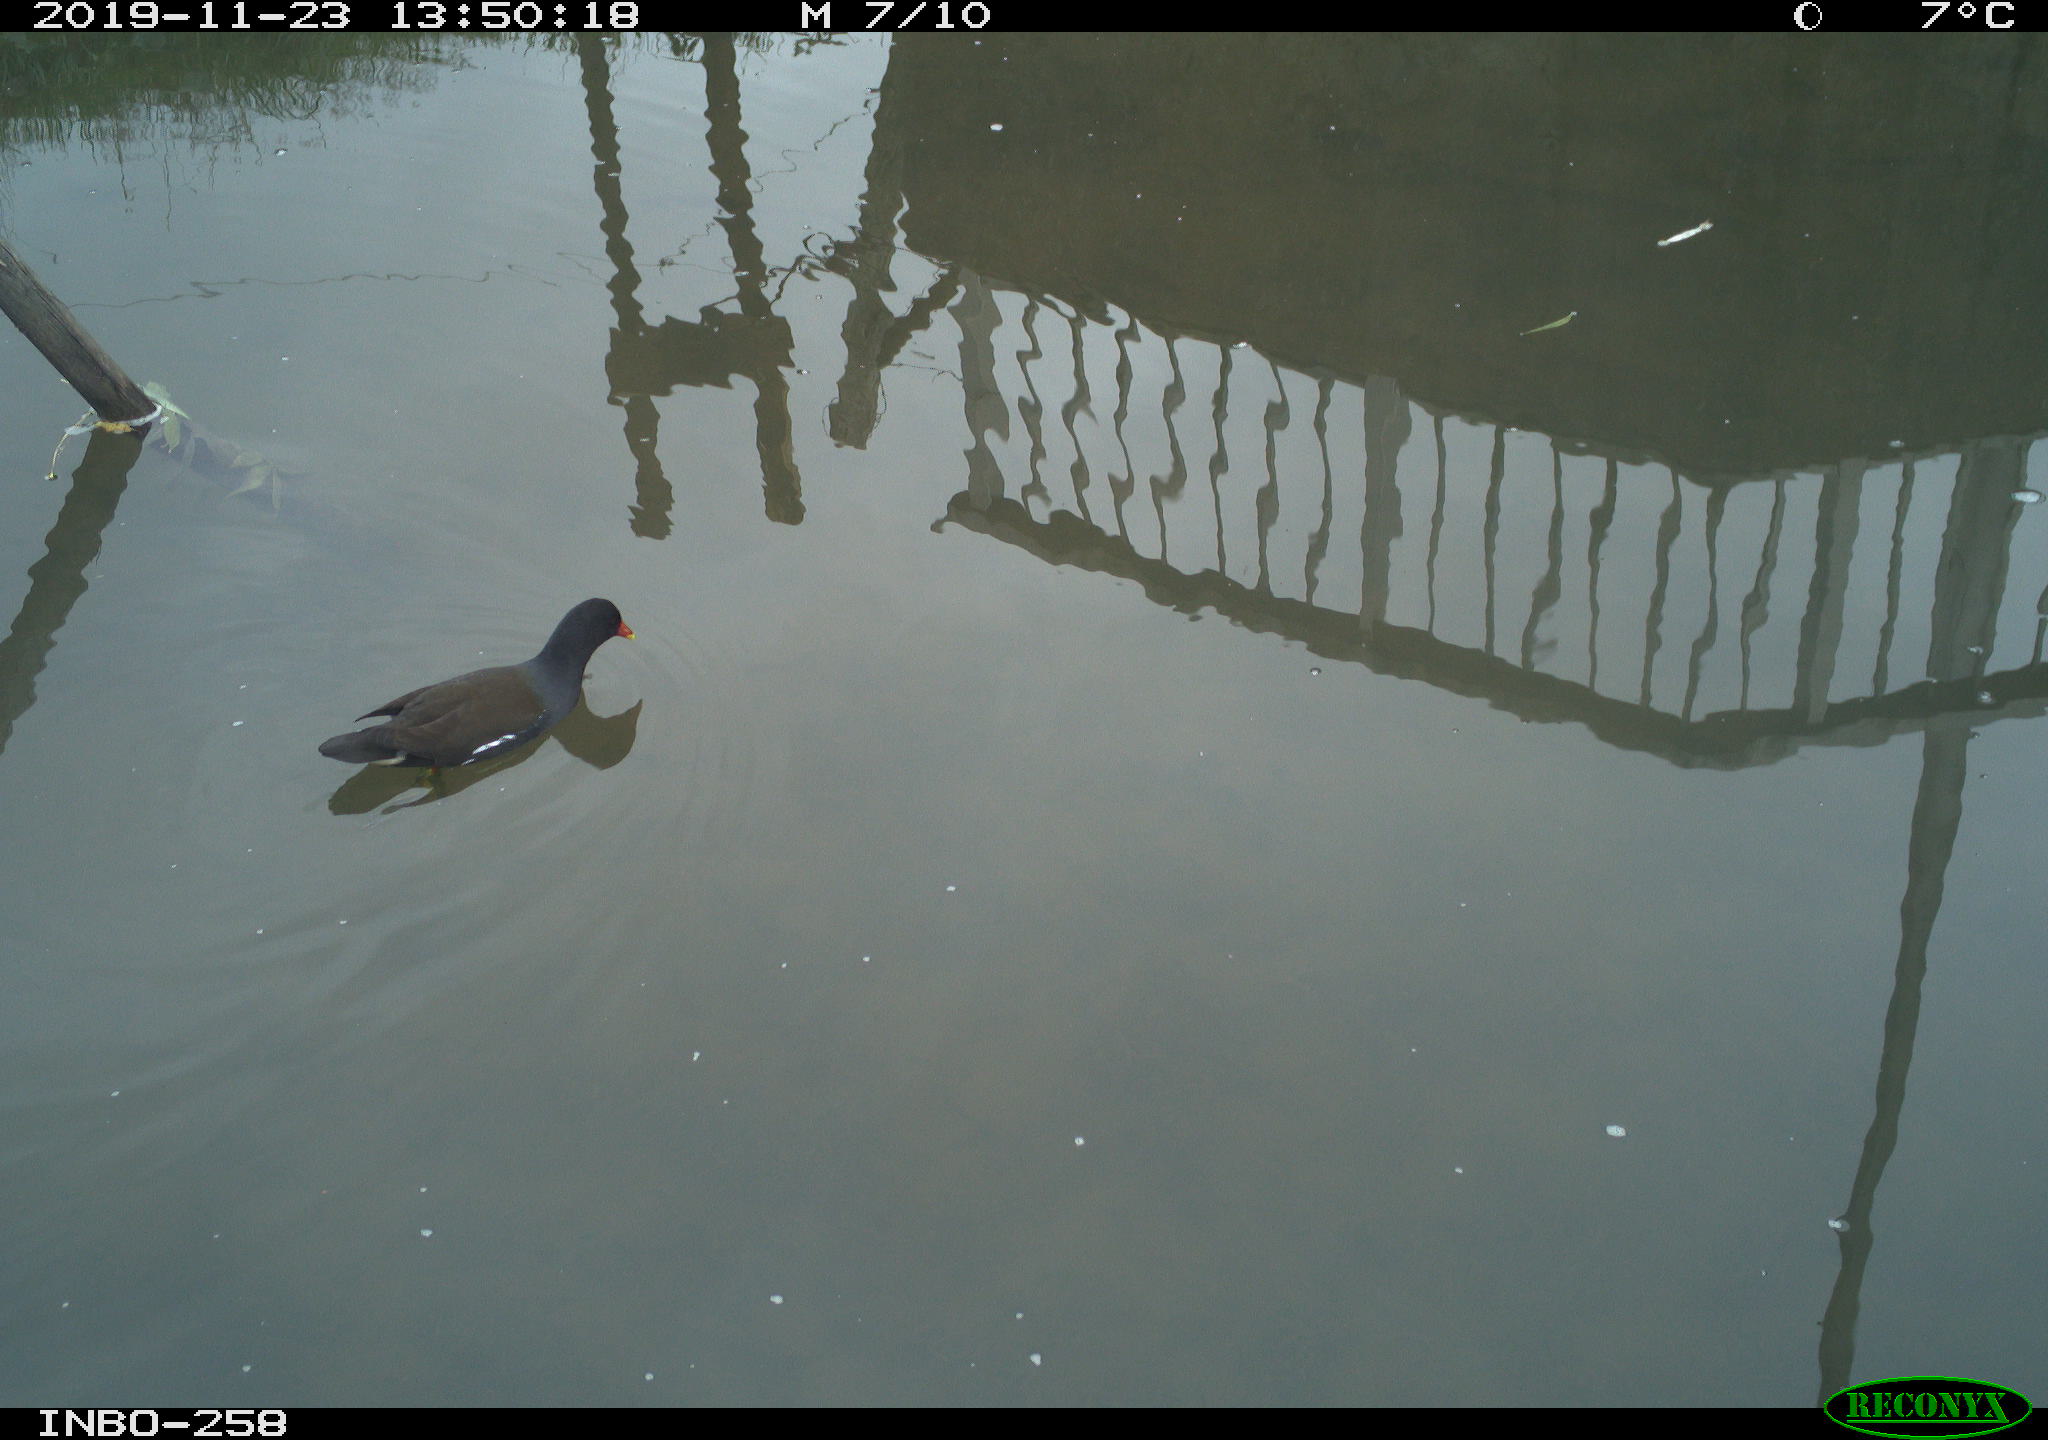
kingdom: Animalia
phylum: Chordata
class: Aves
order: Gruiformes
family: Rallidae
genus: Gallinula
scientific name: Gallinula chloropus
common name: Common moorhen
